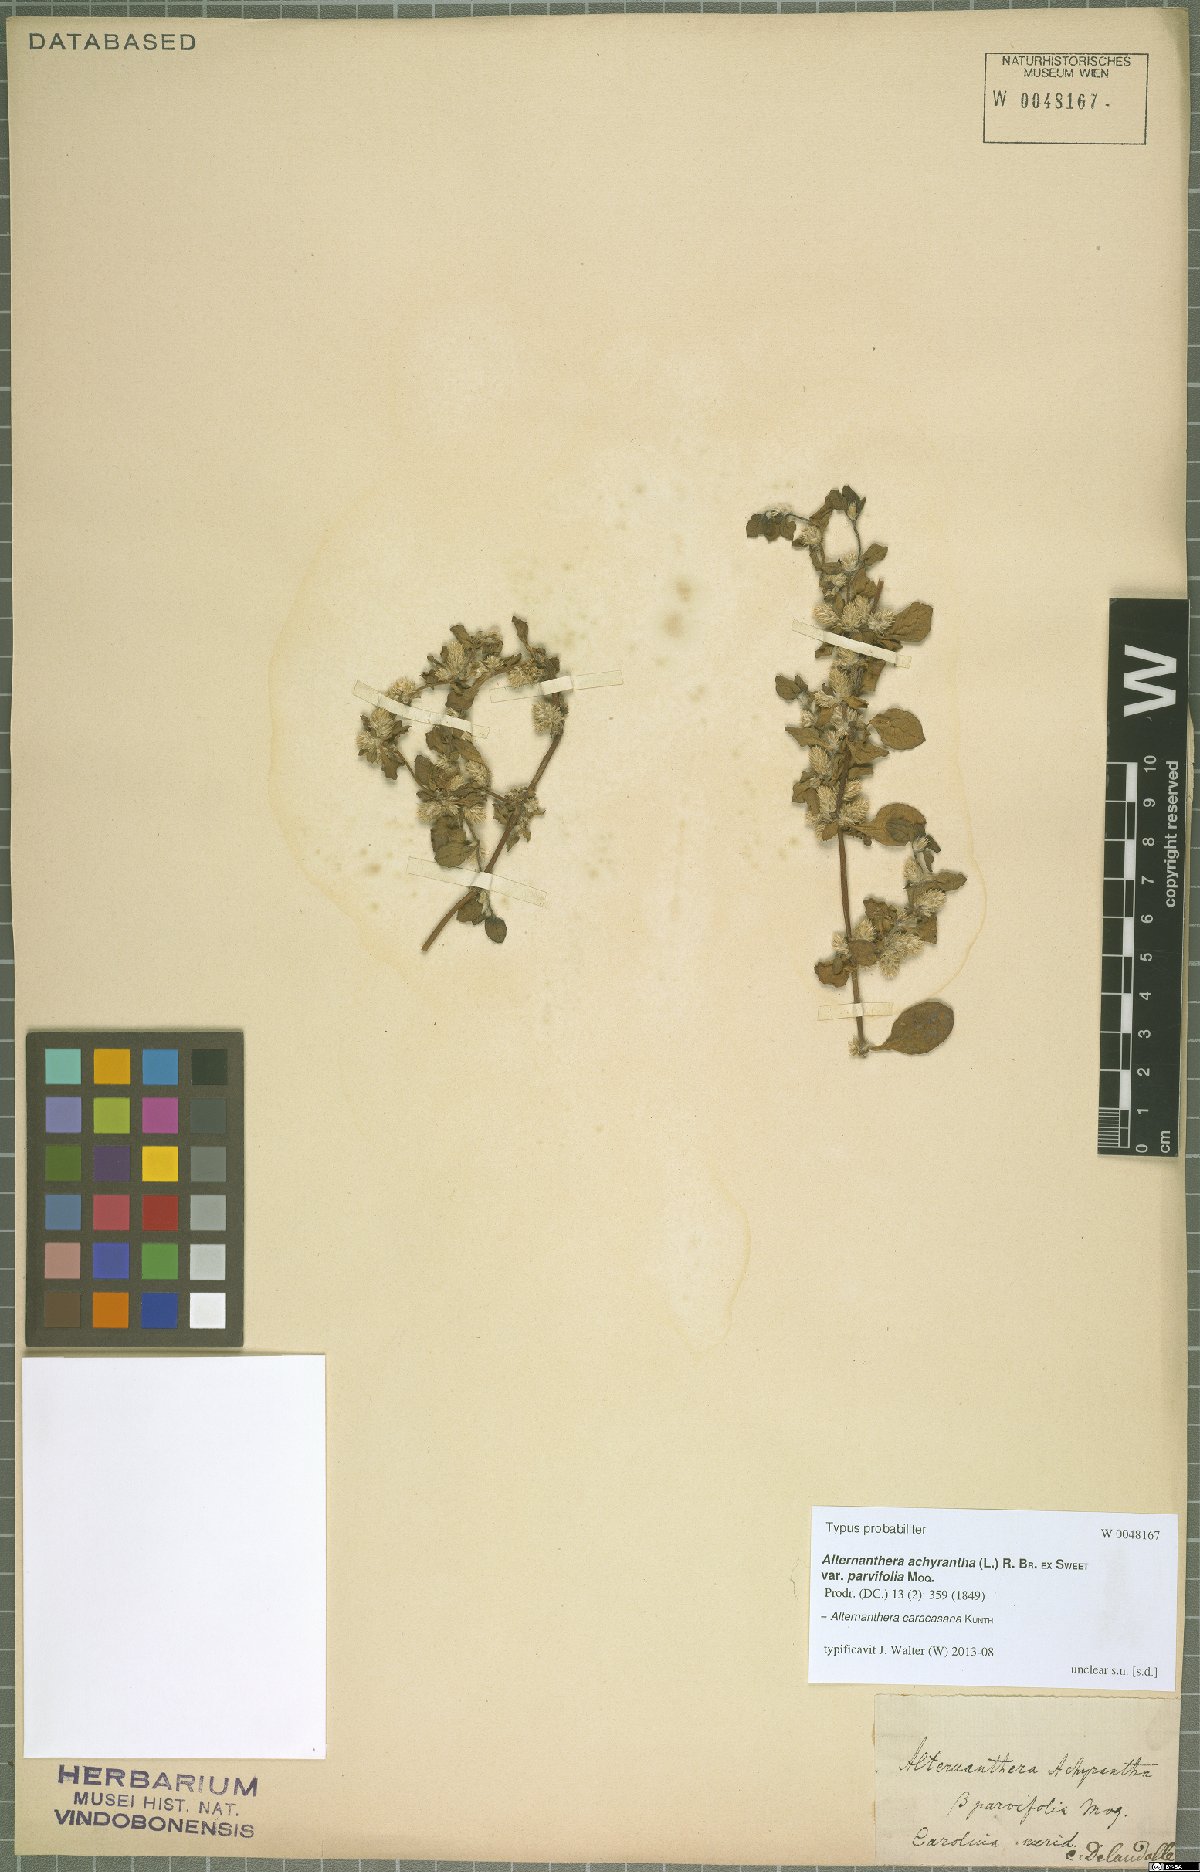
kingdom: Plantae
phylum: Tracheophyta
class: Magnoliopsida
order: Caryophyllales
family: Amaranthaceae
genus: Alternanthera
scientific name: Alternanthera caracasana
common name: Washerwoman
